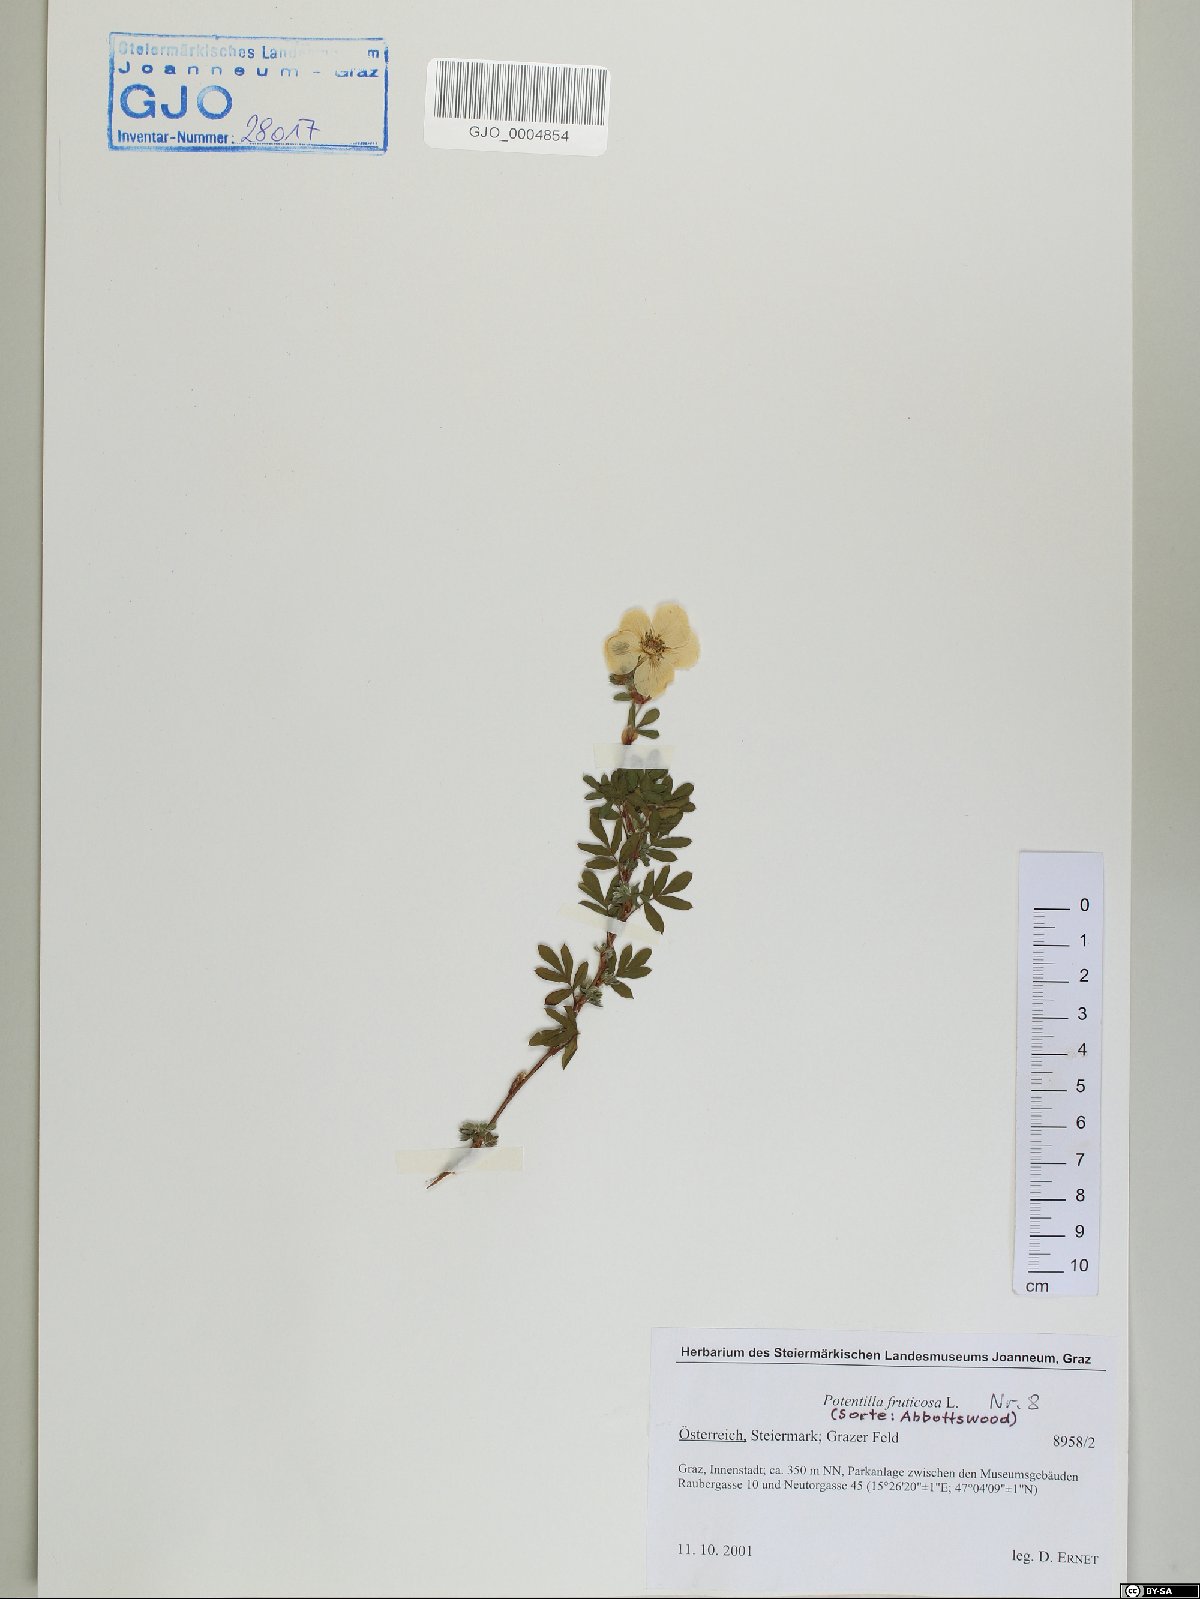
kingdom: Plantae
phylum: Tracheophyta
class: Magnoliopsida
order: Rosales
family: Rosaceae
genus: Dasiphora
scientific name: Dasiphora fruticosa
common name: Shrubby cinquefoil
